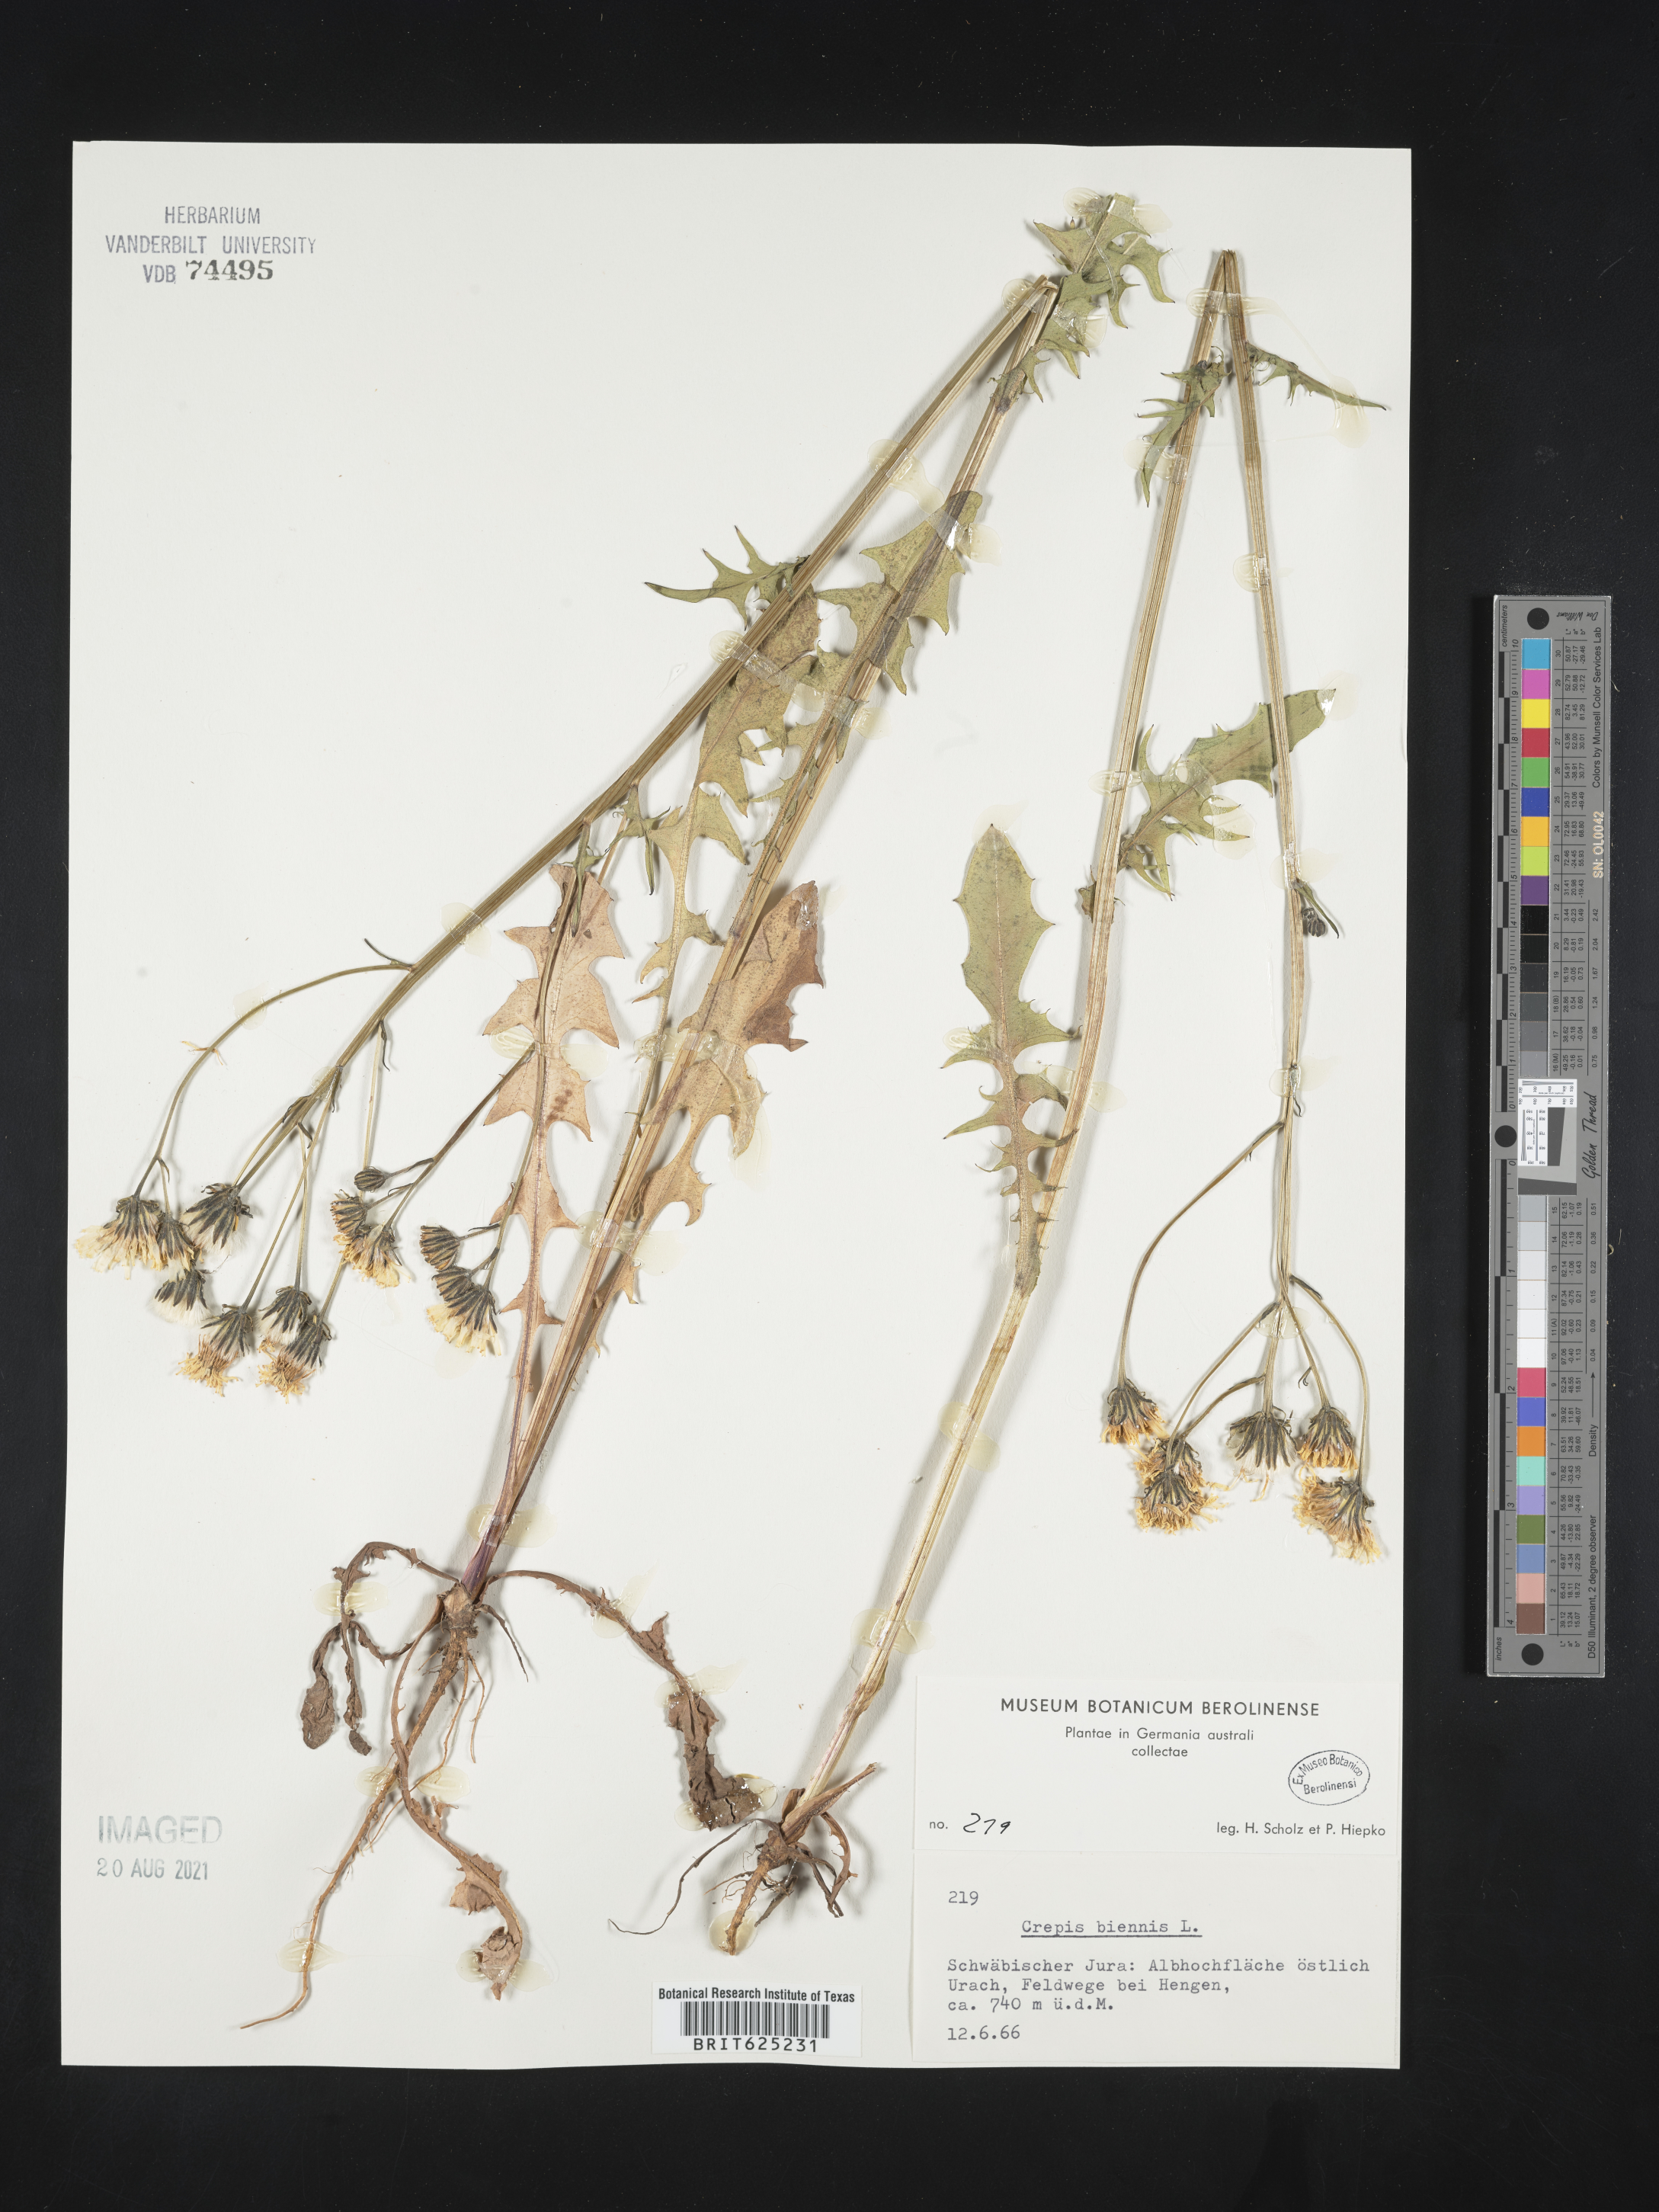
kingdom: Plantae
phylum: Tracheophyta
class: Magnoliopsida
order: Asterales
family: Asteraceae
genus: Crepis
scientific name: Crepis biennis
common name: Rough hawk's-beard
